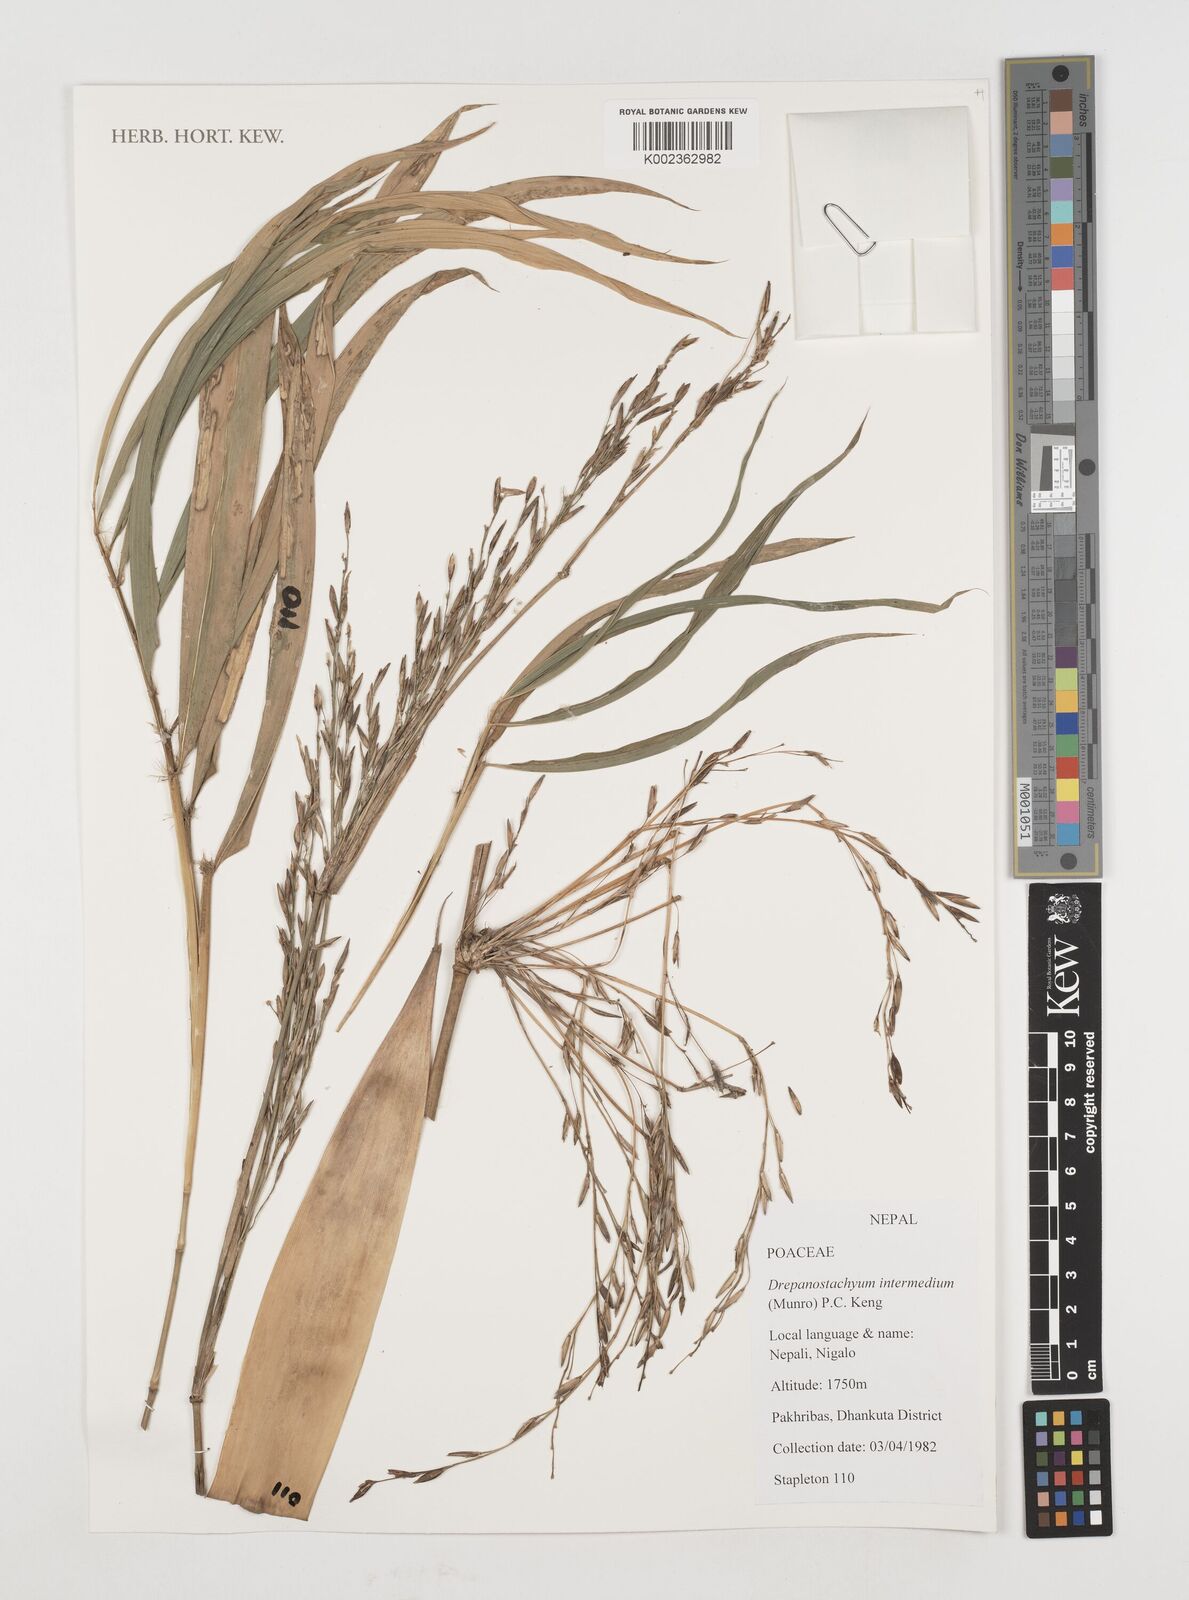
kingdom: Plantae
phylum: Tracheophyta
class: Liliopsida
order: Poales
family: Poaceae
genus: Drepanostachyum
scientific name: Drepanostachyum intermedium
